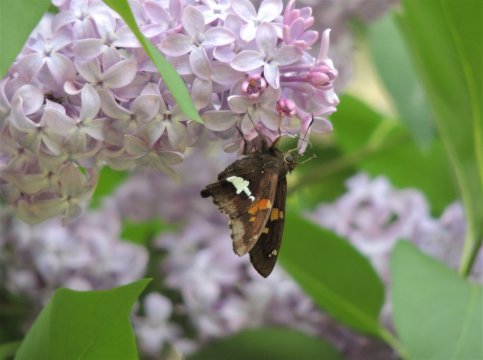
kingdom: Animalia
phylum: Arthropoda
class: Insecta
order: Lepidoptera
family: Hesperiidae
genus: Epargyreus
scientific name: Epargyreus clarus
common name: Silver-spotted Skipper
